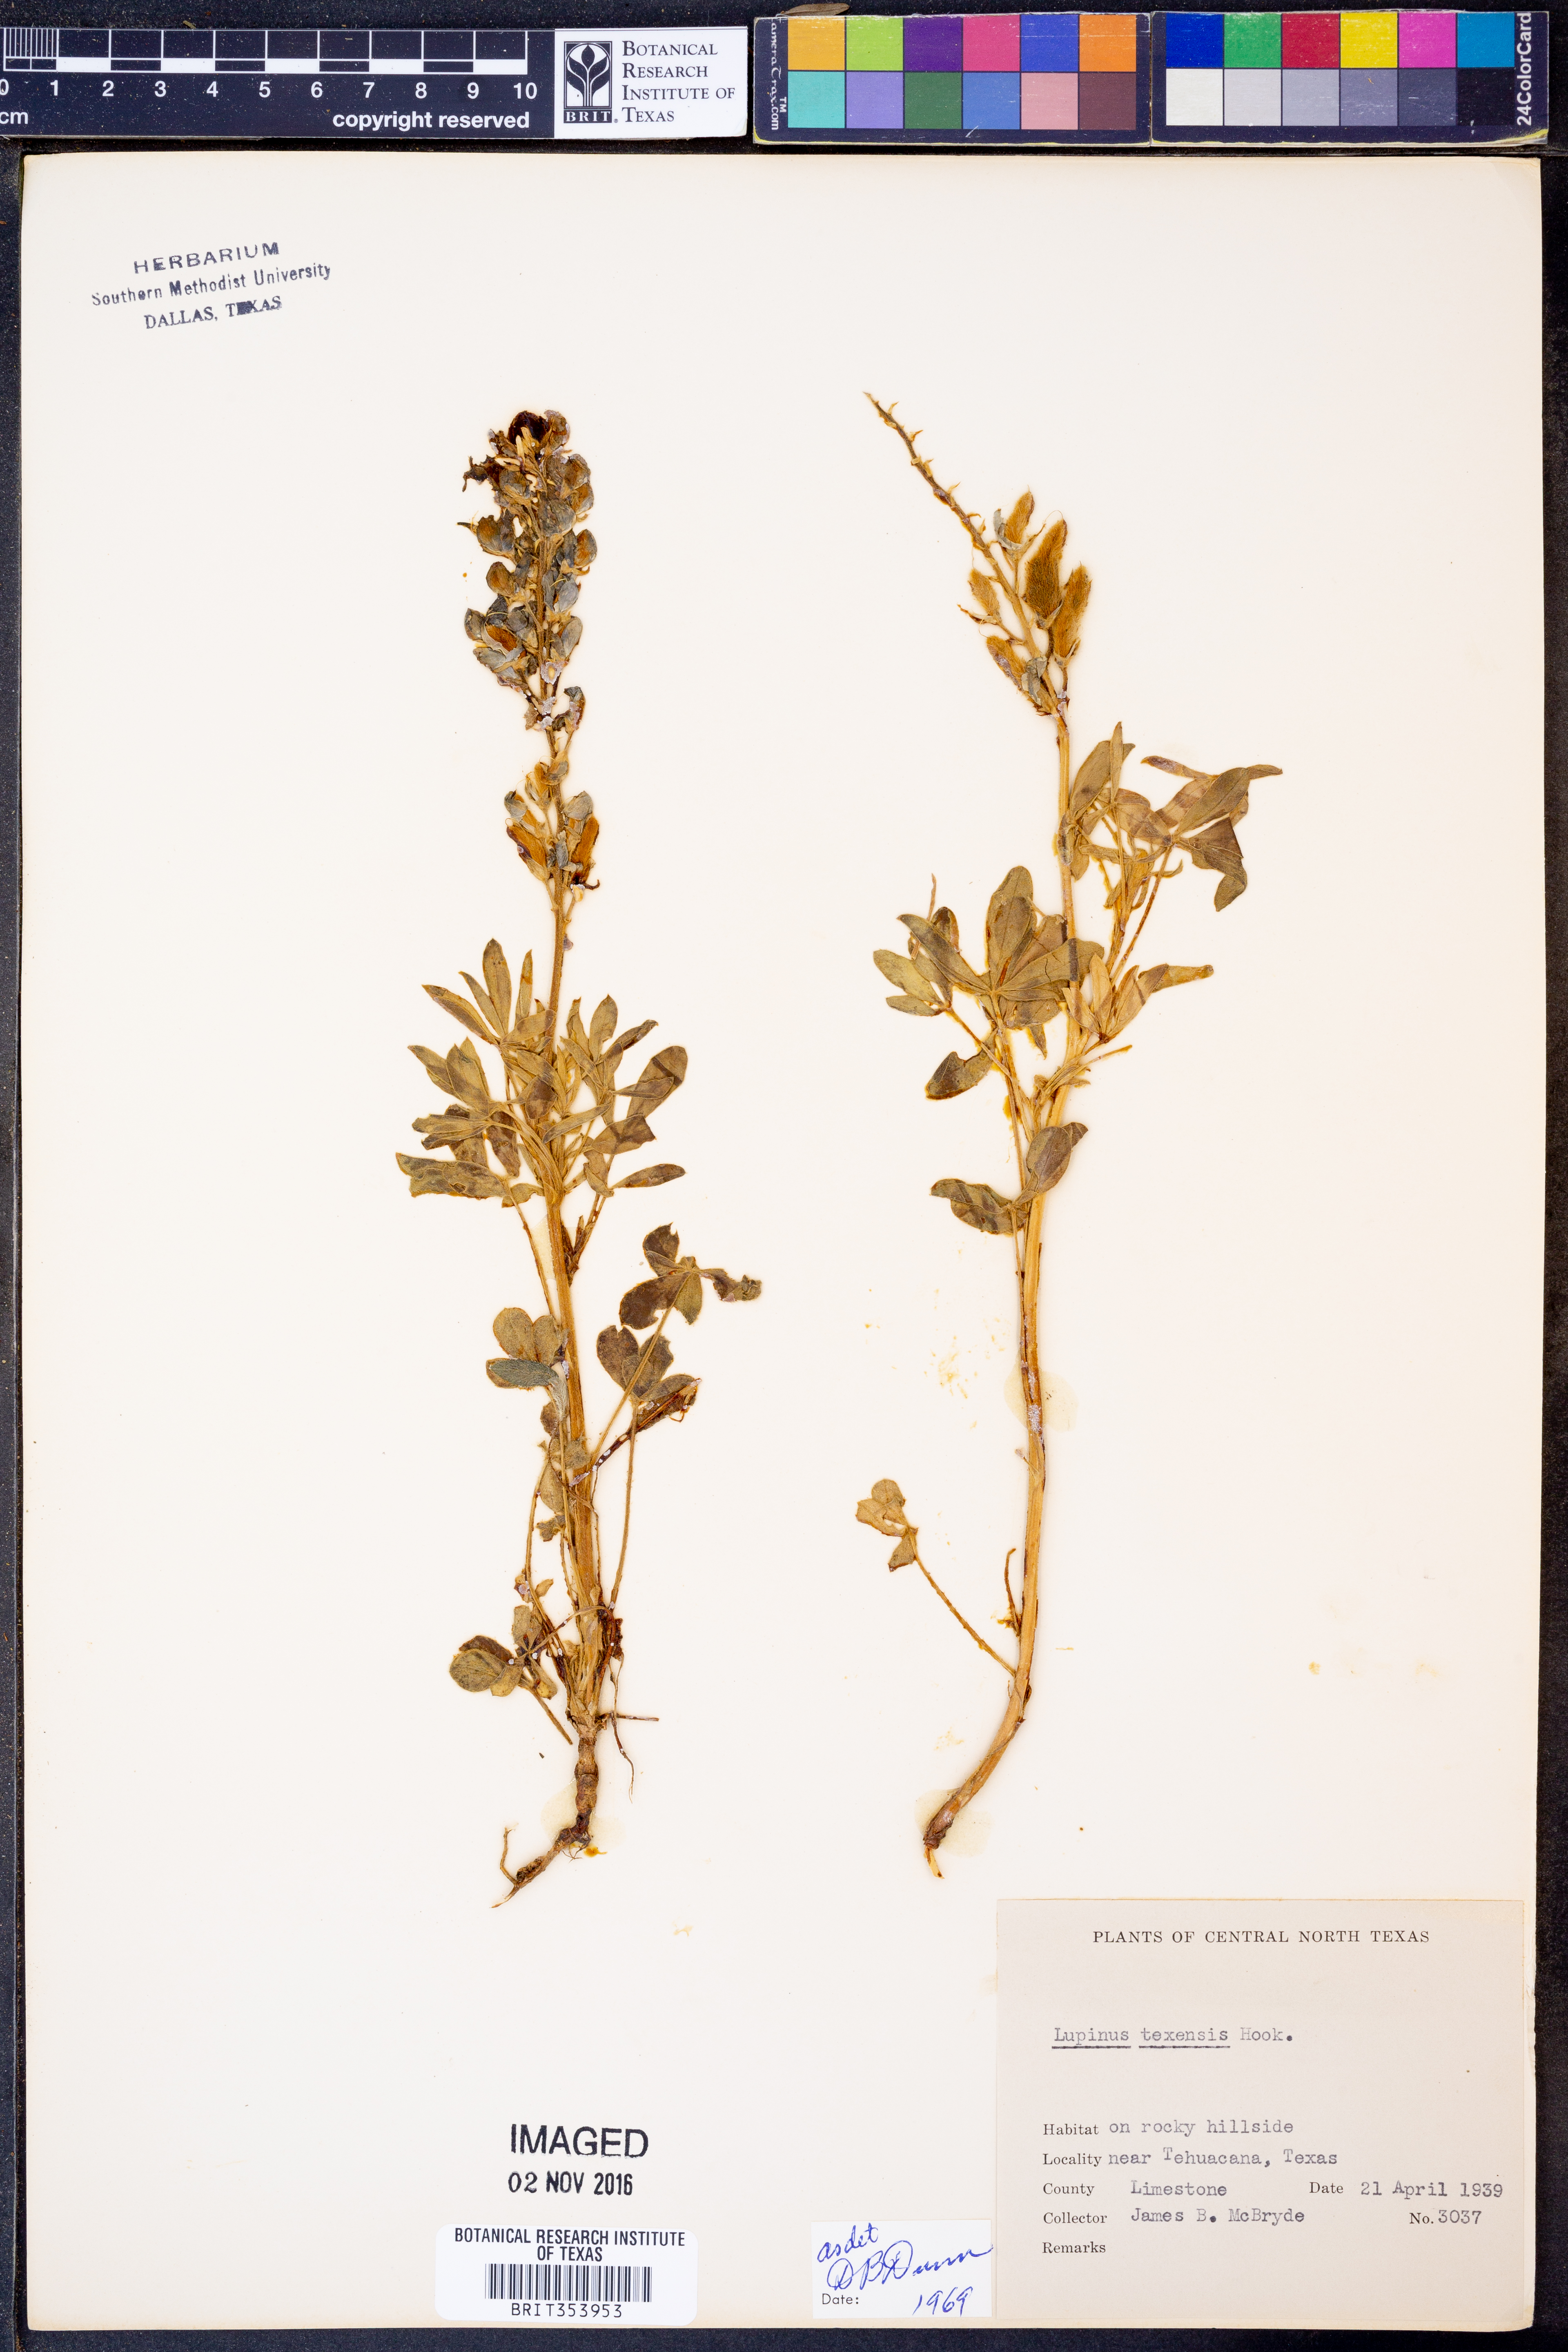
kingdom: Plantae
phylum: Tracheophyta
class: Magnoliopsida
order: Fabales
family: Fabaceae
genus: Lupinus
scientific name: Lupinus texensis
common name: Texas bluebonnet
